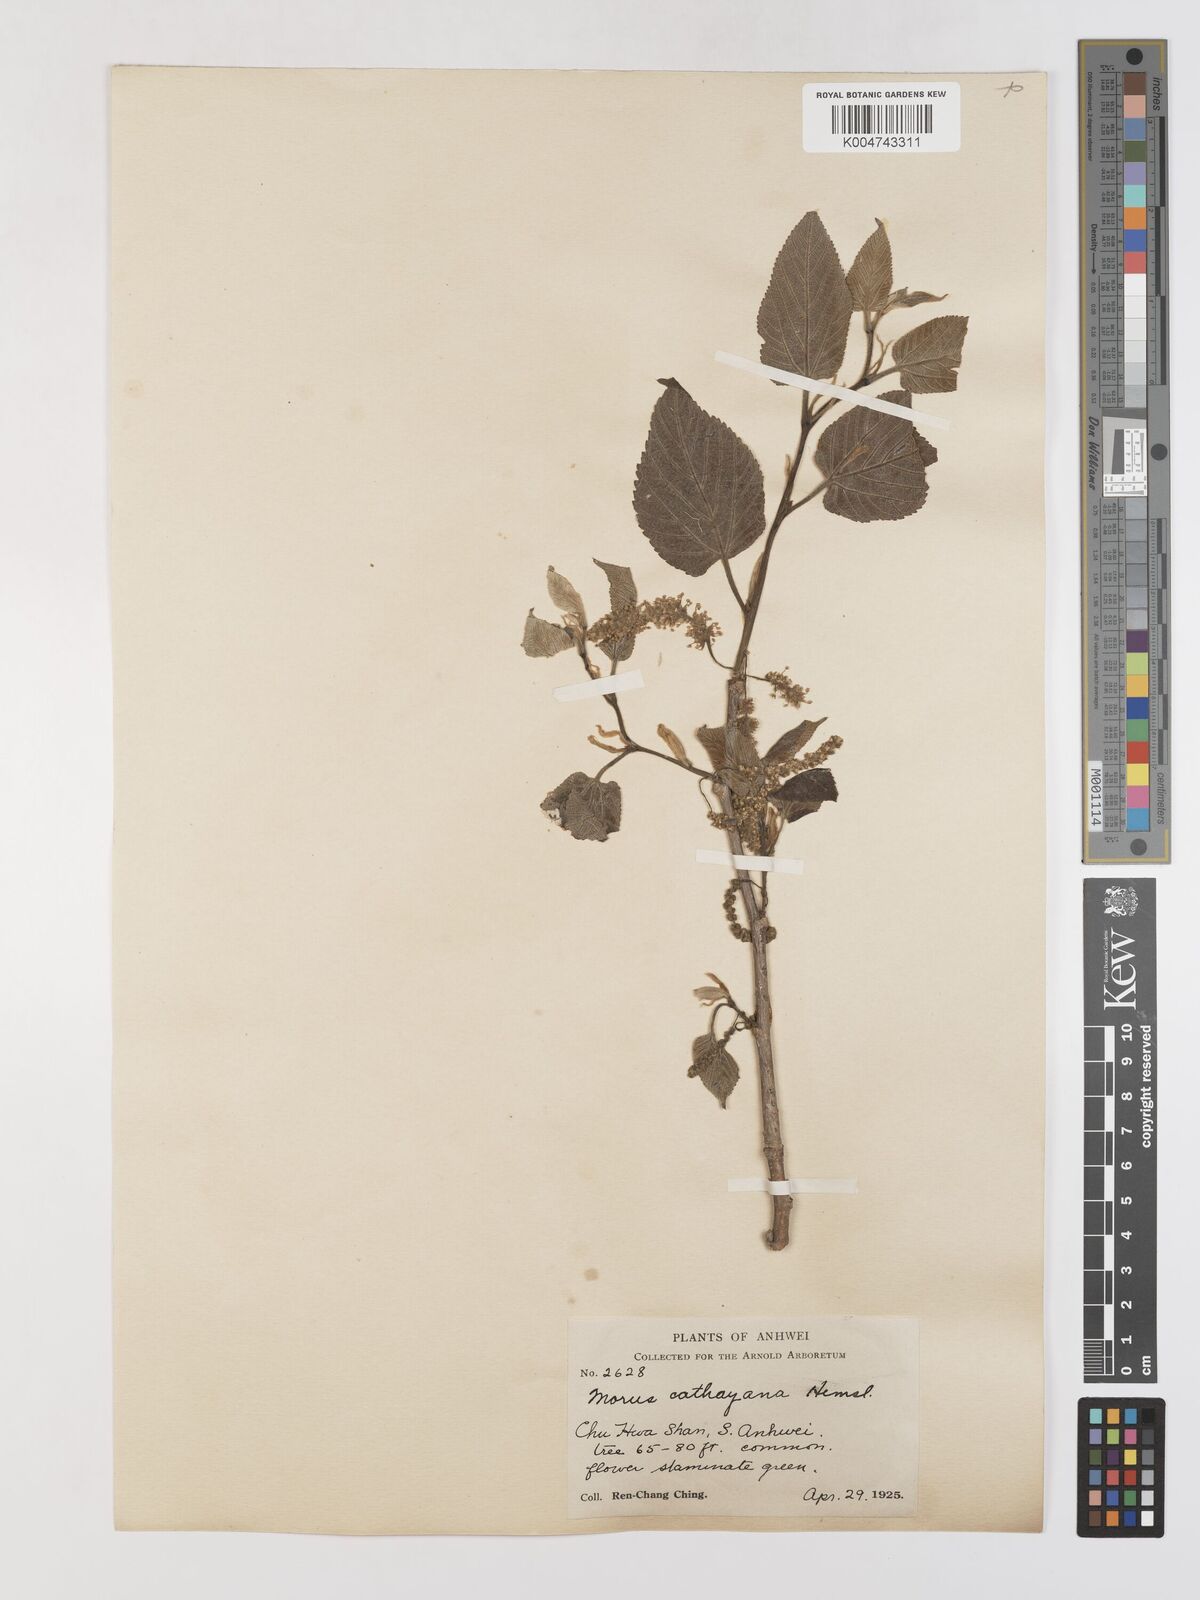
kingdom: Plantae
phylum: Tracheophyta
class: Magnoliopsida
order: Rosales
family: Moraceae
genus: Morus
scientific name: Morus cathayana
